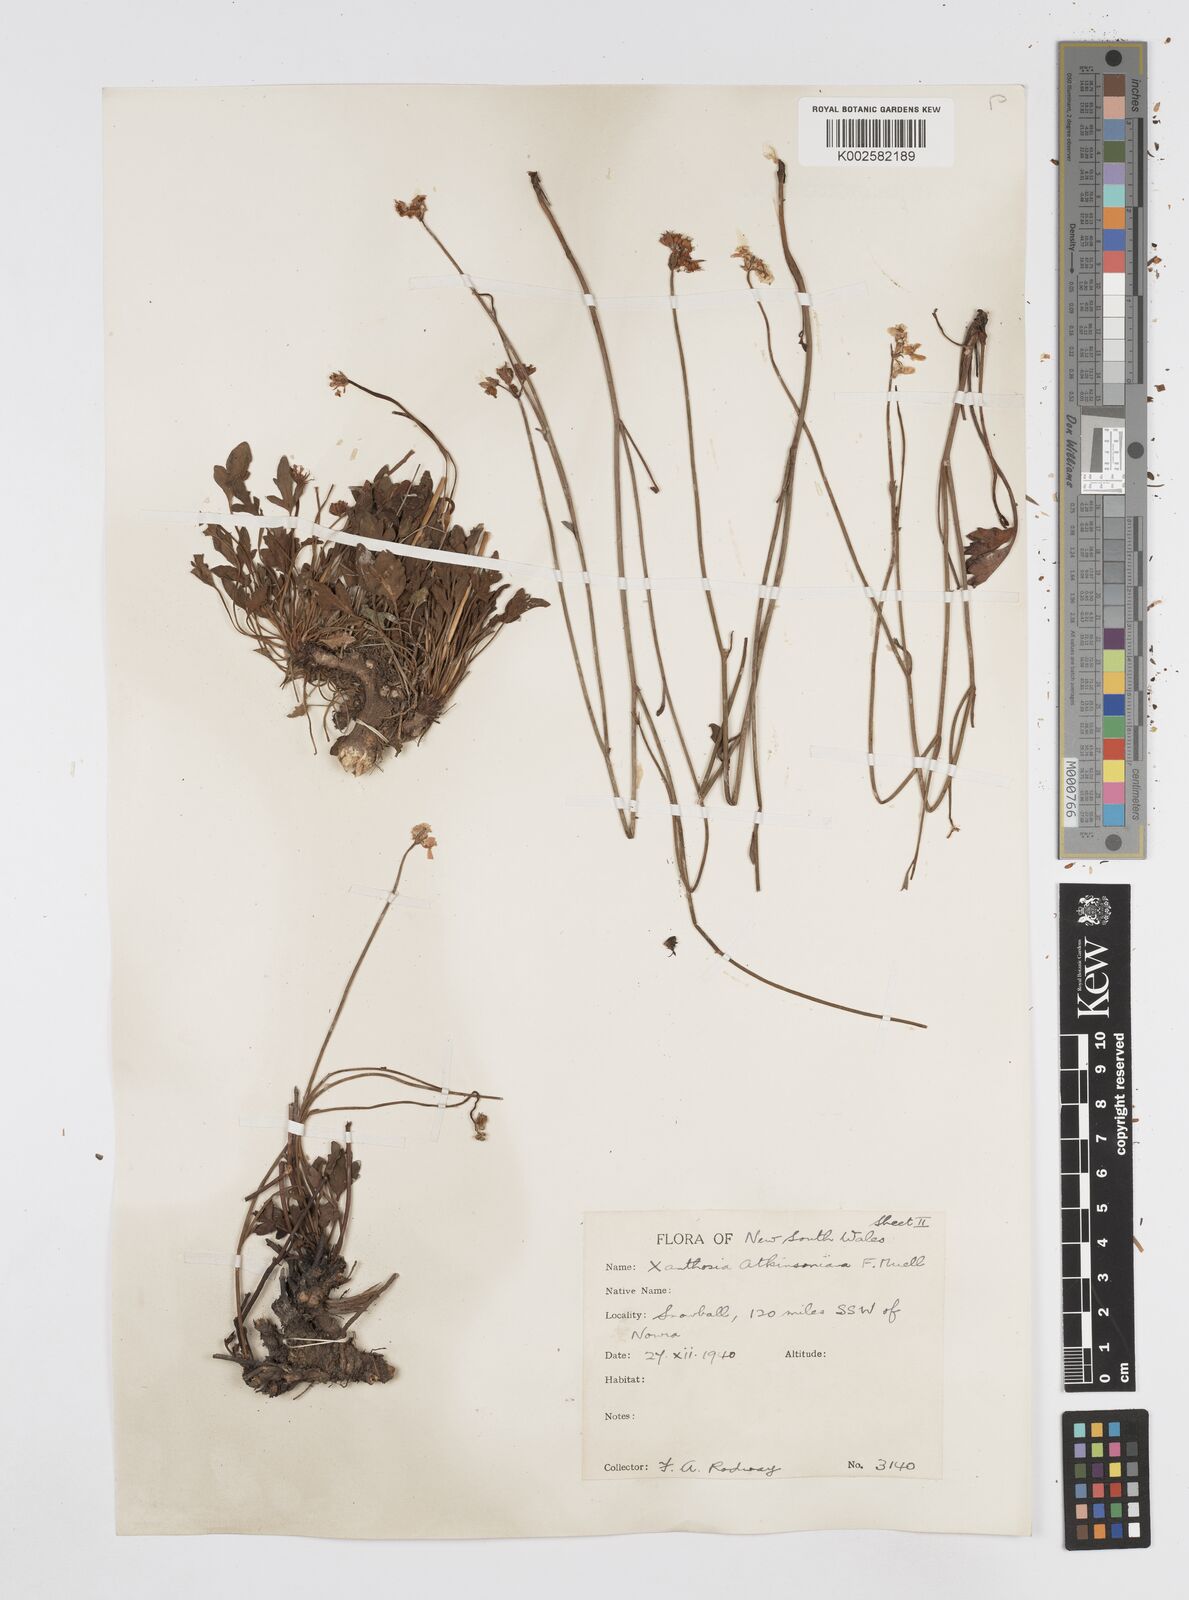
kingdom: Plantae
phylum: Tracheophyta
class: Magnoliopsida
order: Apiales
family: Apiaceae
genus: Xanthosia
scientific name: Xanthosia atkinsoniana
